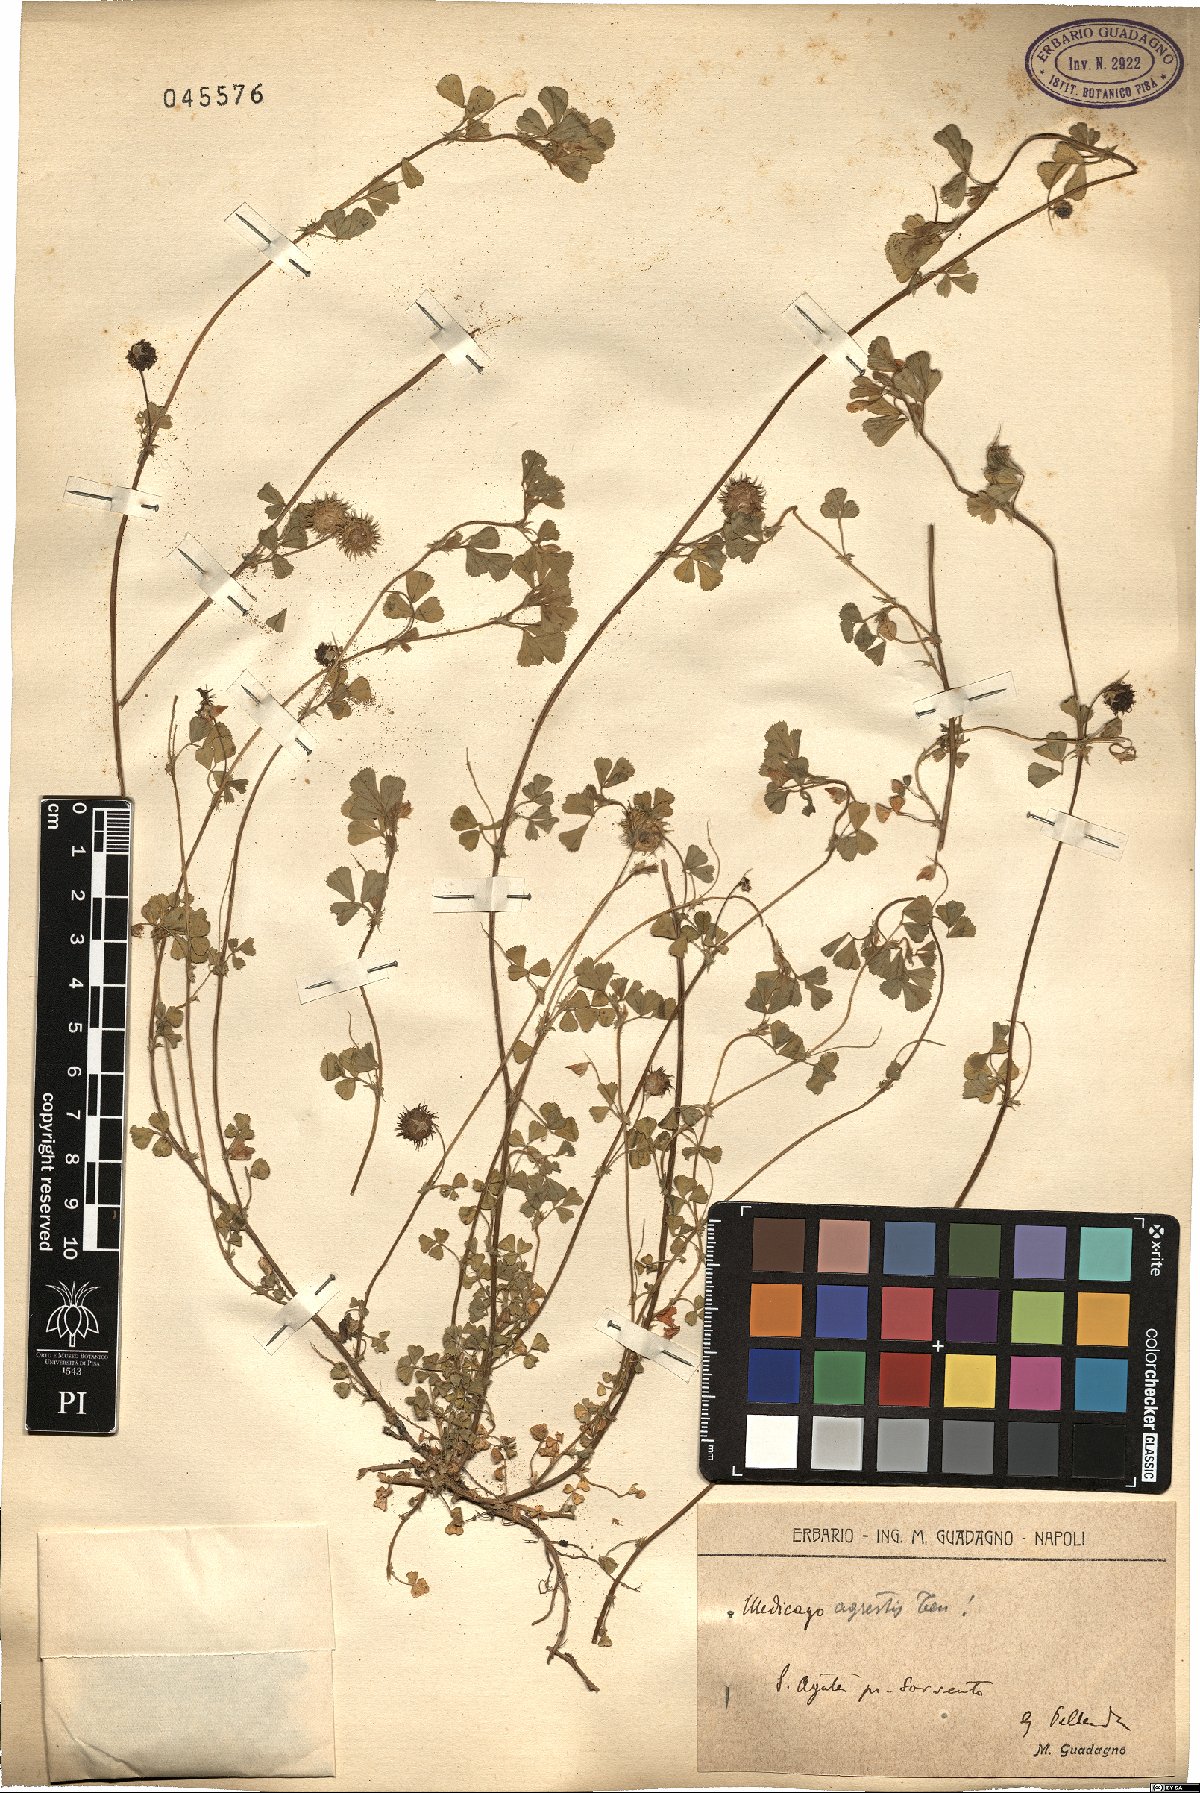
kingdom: Plantae
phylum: Tracheophyta
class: Magnoliopsida
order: Fabales
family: Fabaceae
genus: Medicago
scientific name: Medicago rigidula
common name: Tifton medic
